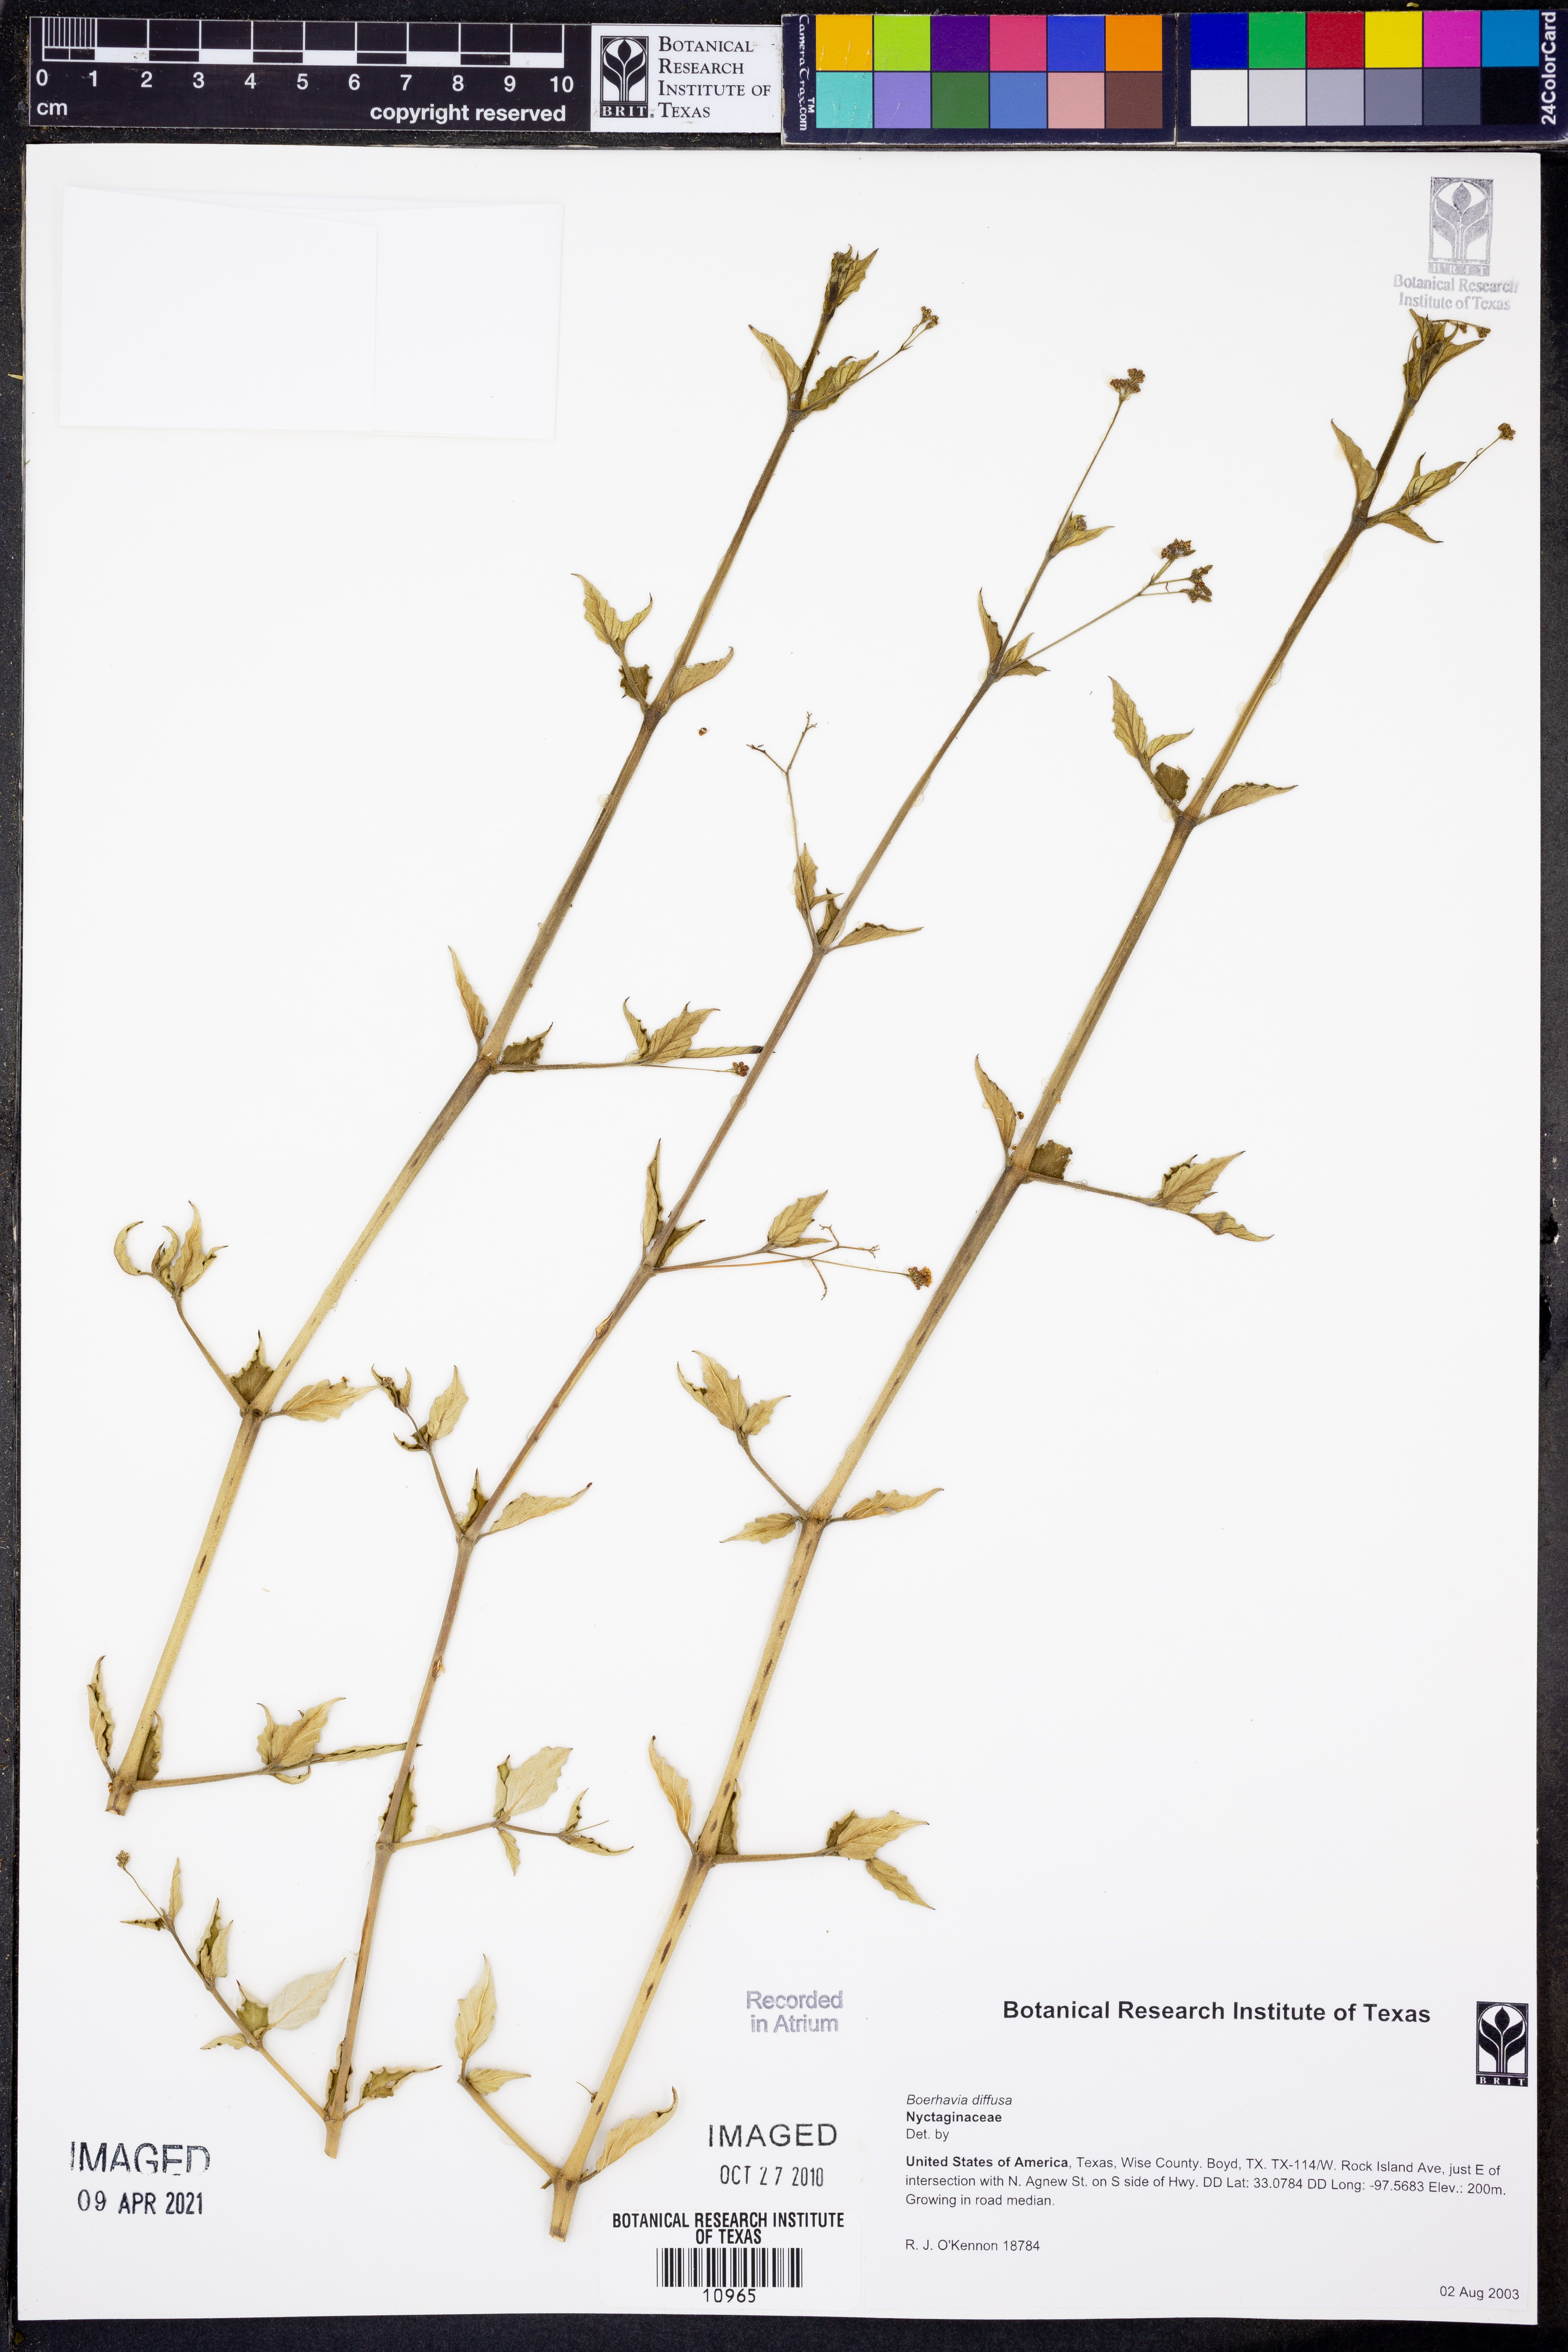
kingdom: Plantae
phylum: Tracheophyta
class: Magnoliopsida
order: Caryophyllales
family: Nyctaginaceae
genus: Boerhavia
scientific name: Boerhavia diffusa
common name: Red spiderling
